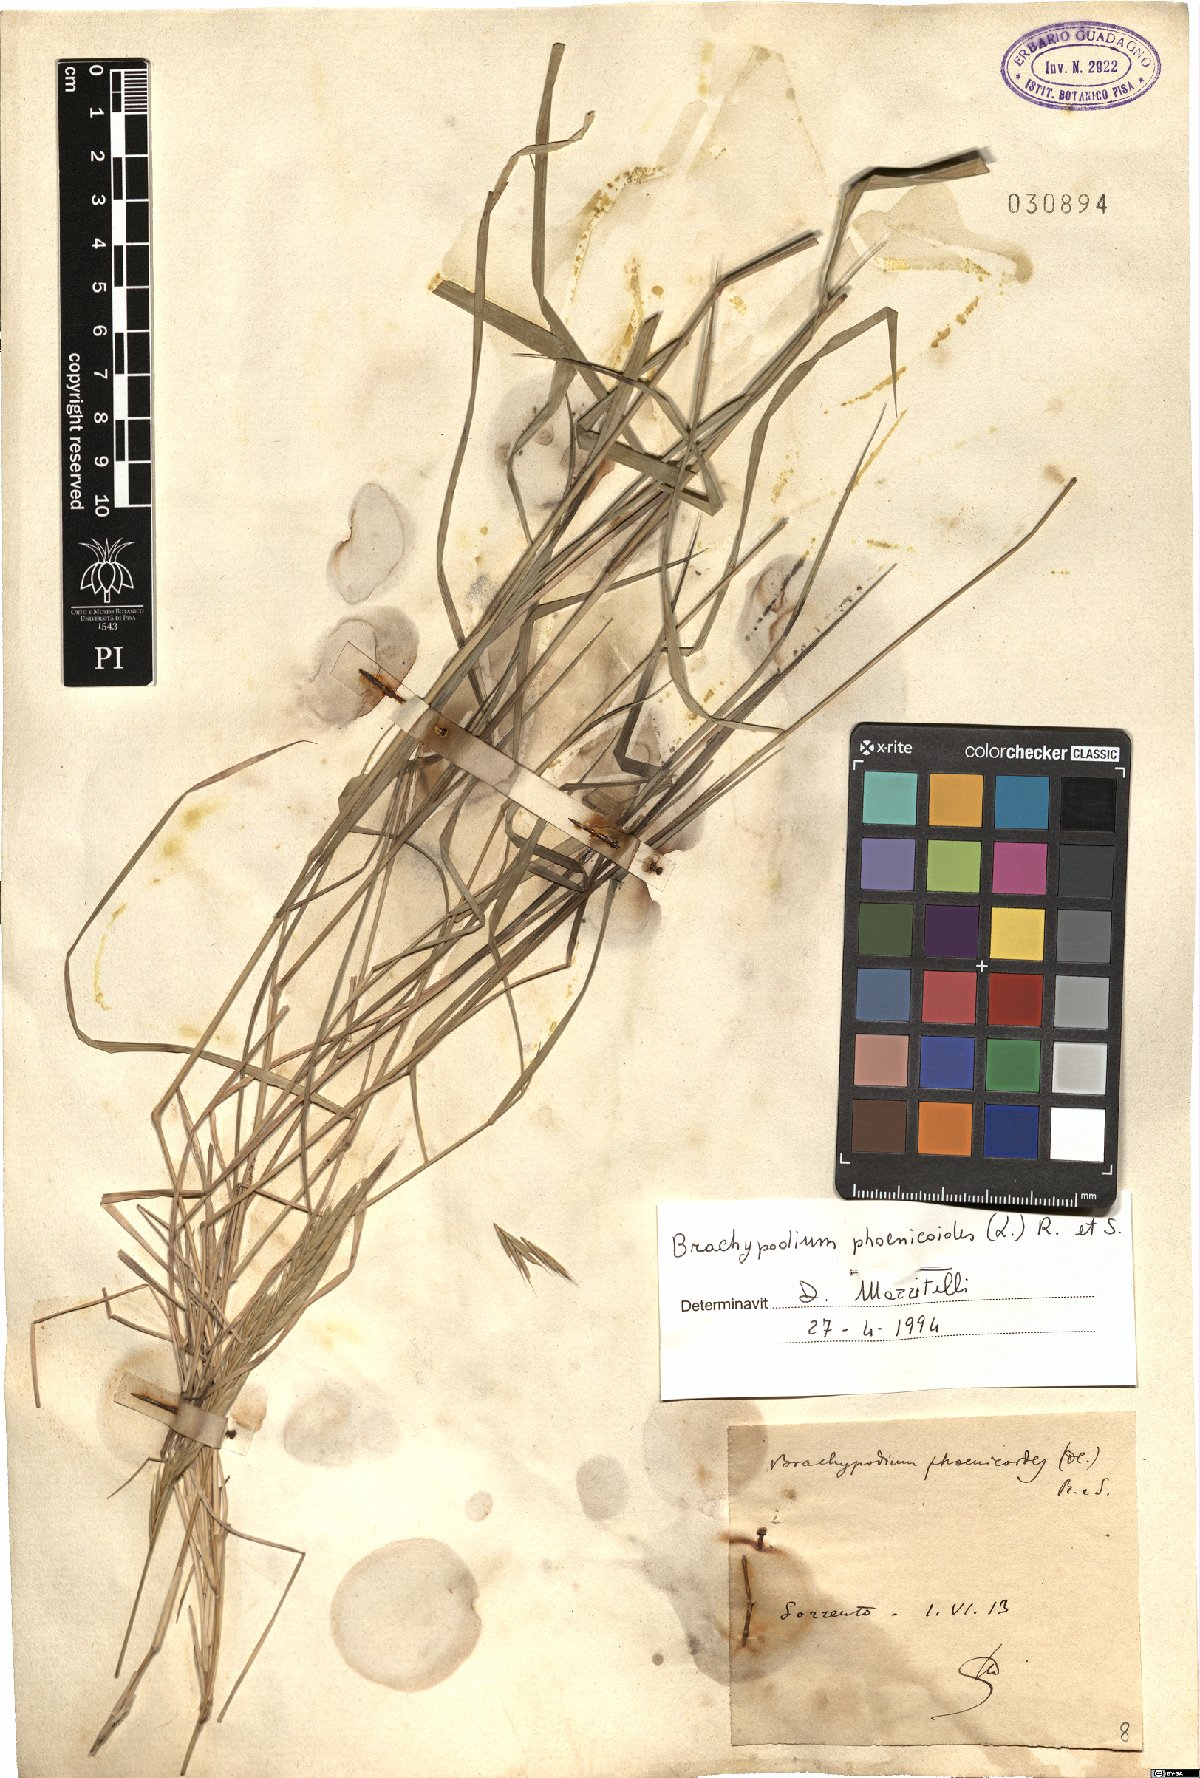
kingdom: Plantae
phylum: Tracheophyta
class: Liliopsida
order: Poales
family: Poaceae
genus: Brachypodium
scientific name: Brachypodium phoenicoides
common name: Thinleaf false brome
